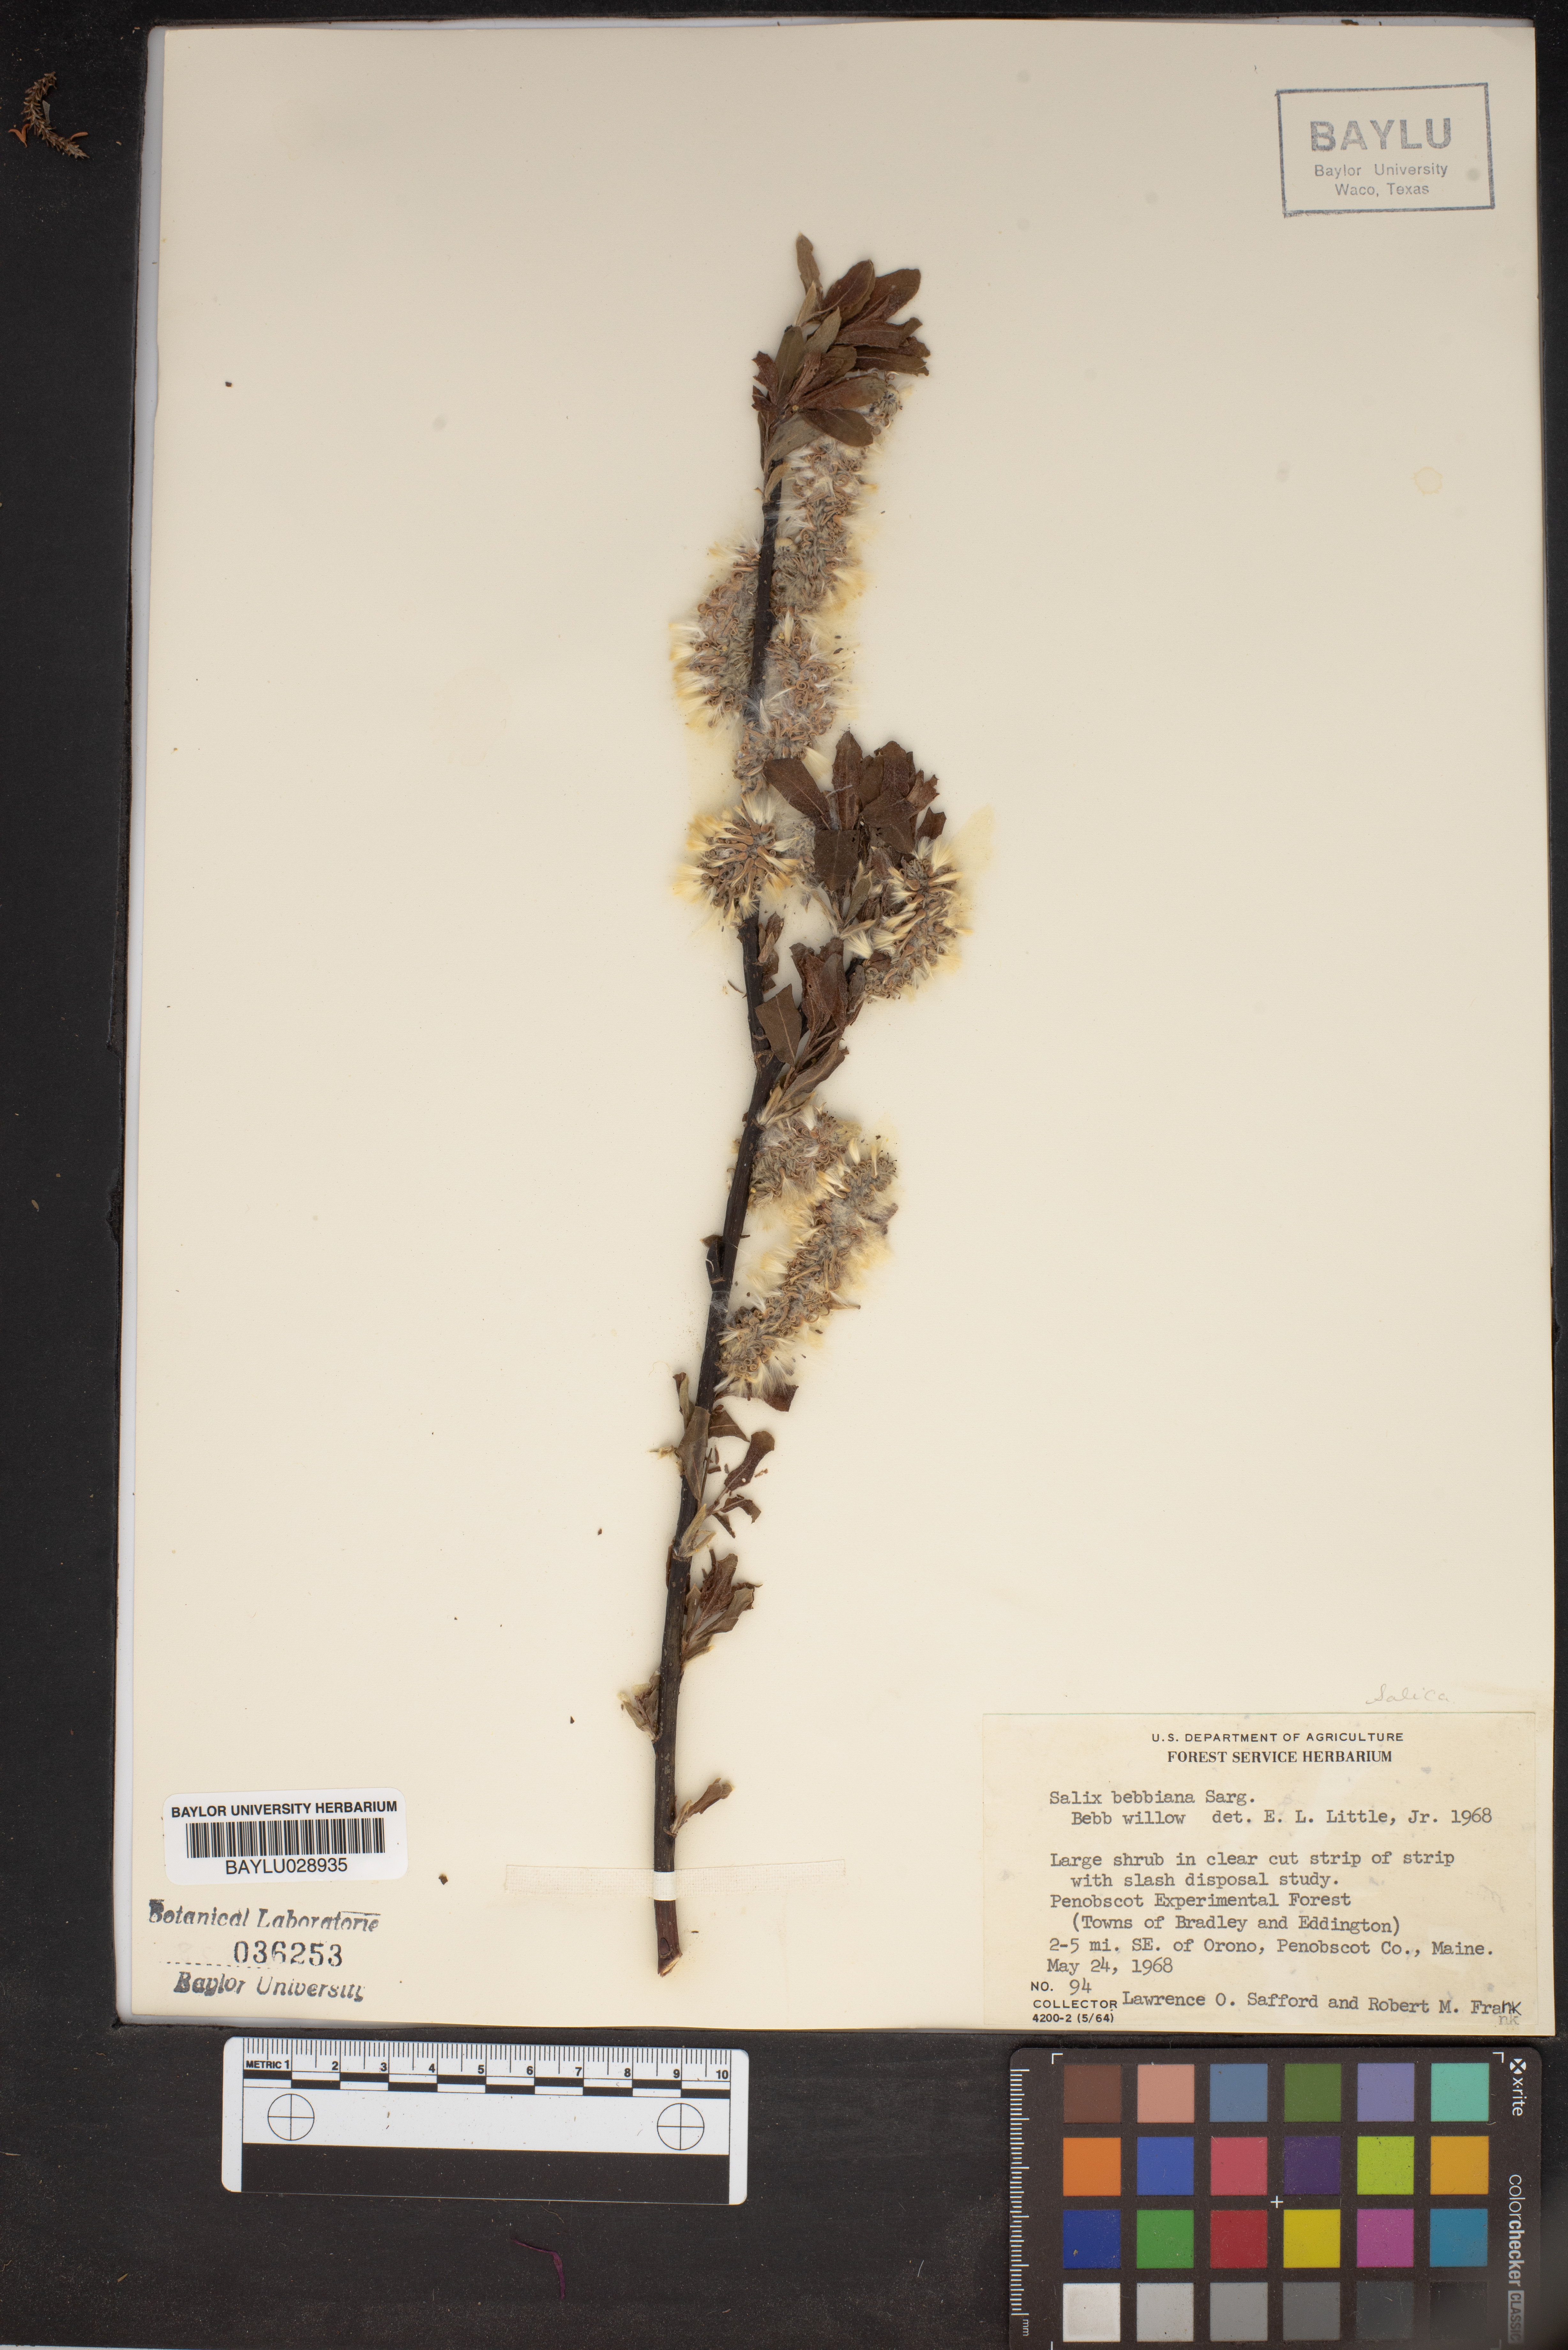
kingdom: Plantae
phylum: Tracheophyta
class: Magnoliopsida
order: Malpighiales
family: Salicaceae
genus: Salix
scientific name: Salix bebbiana
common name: Bebb's willow
